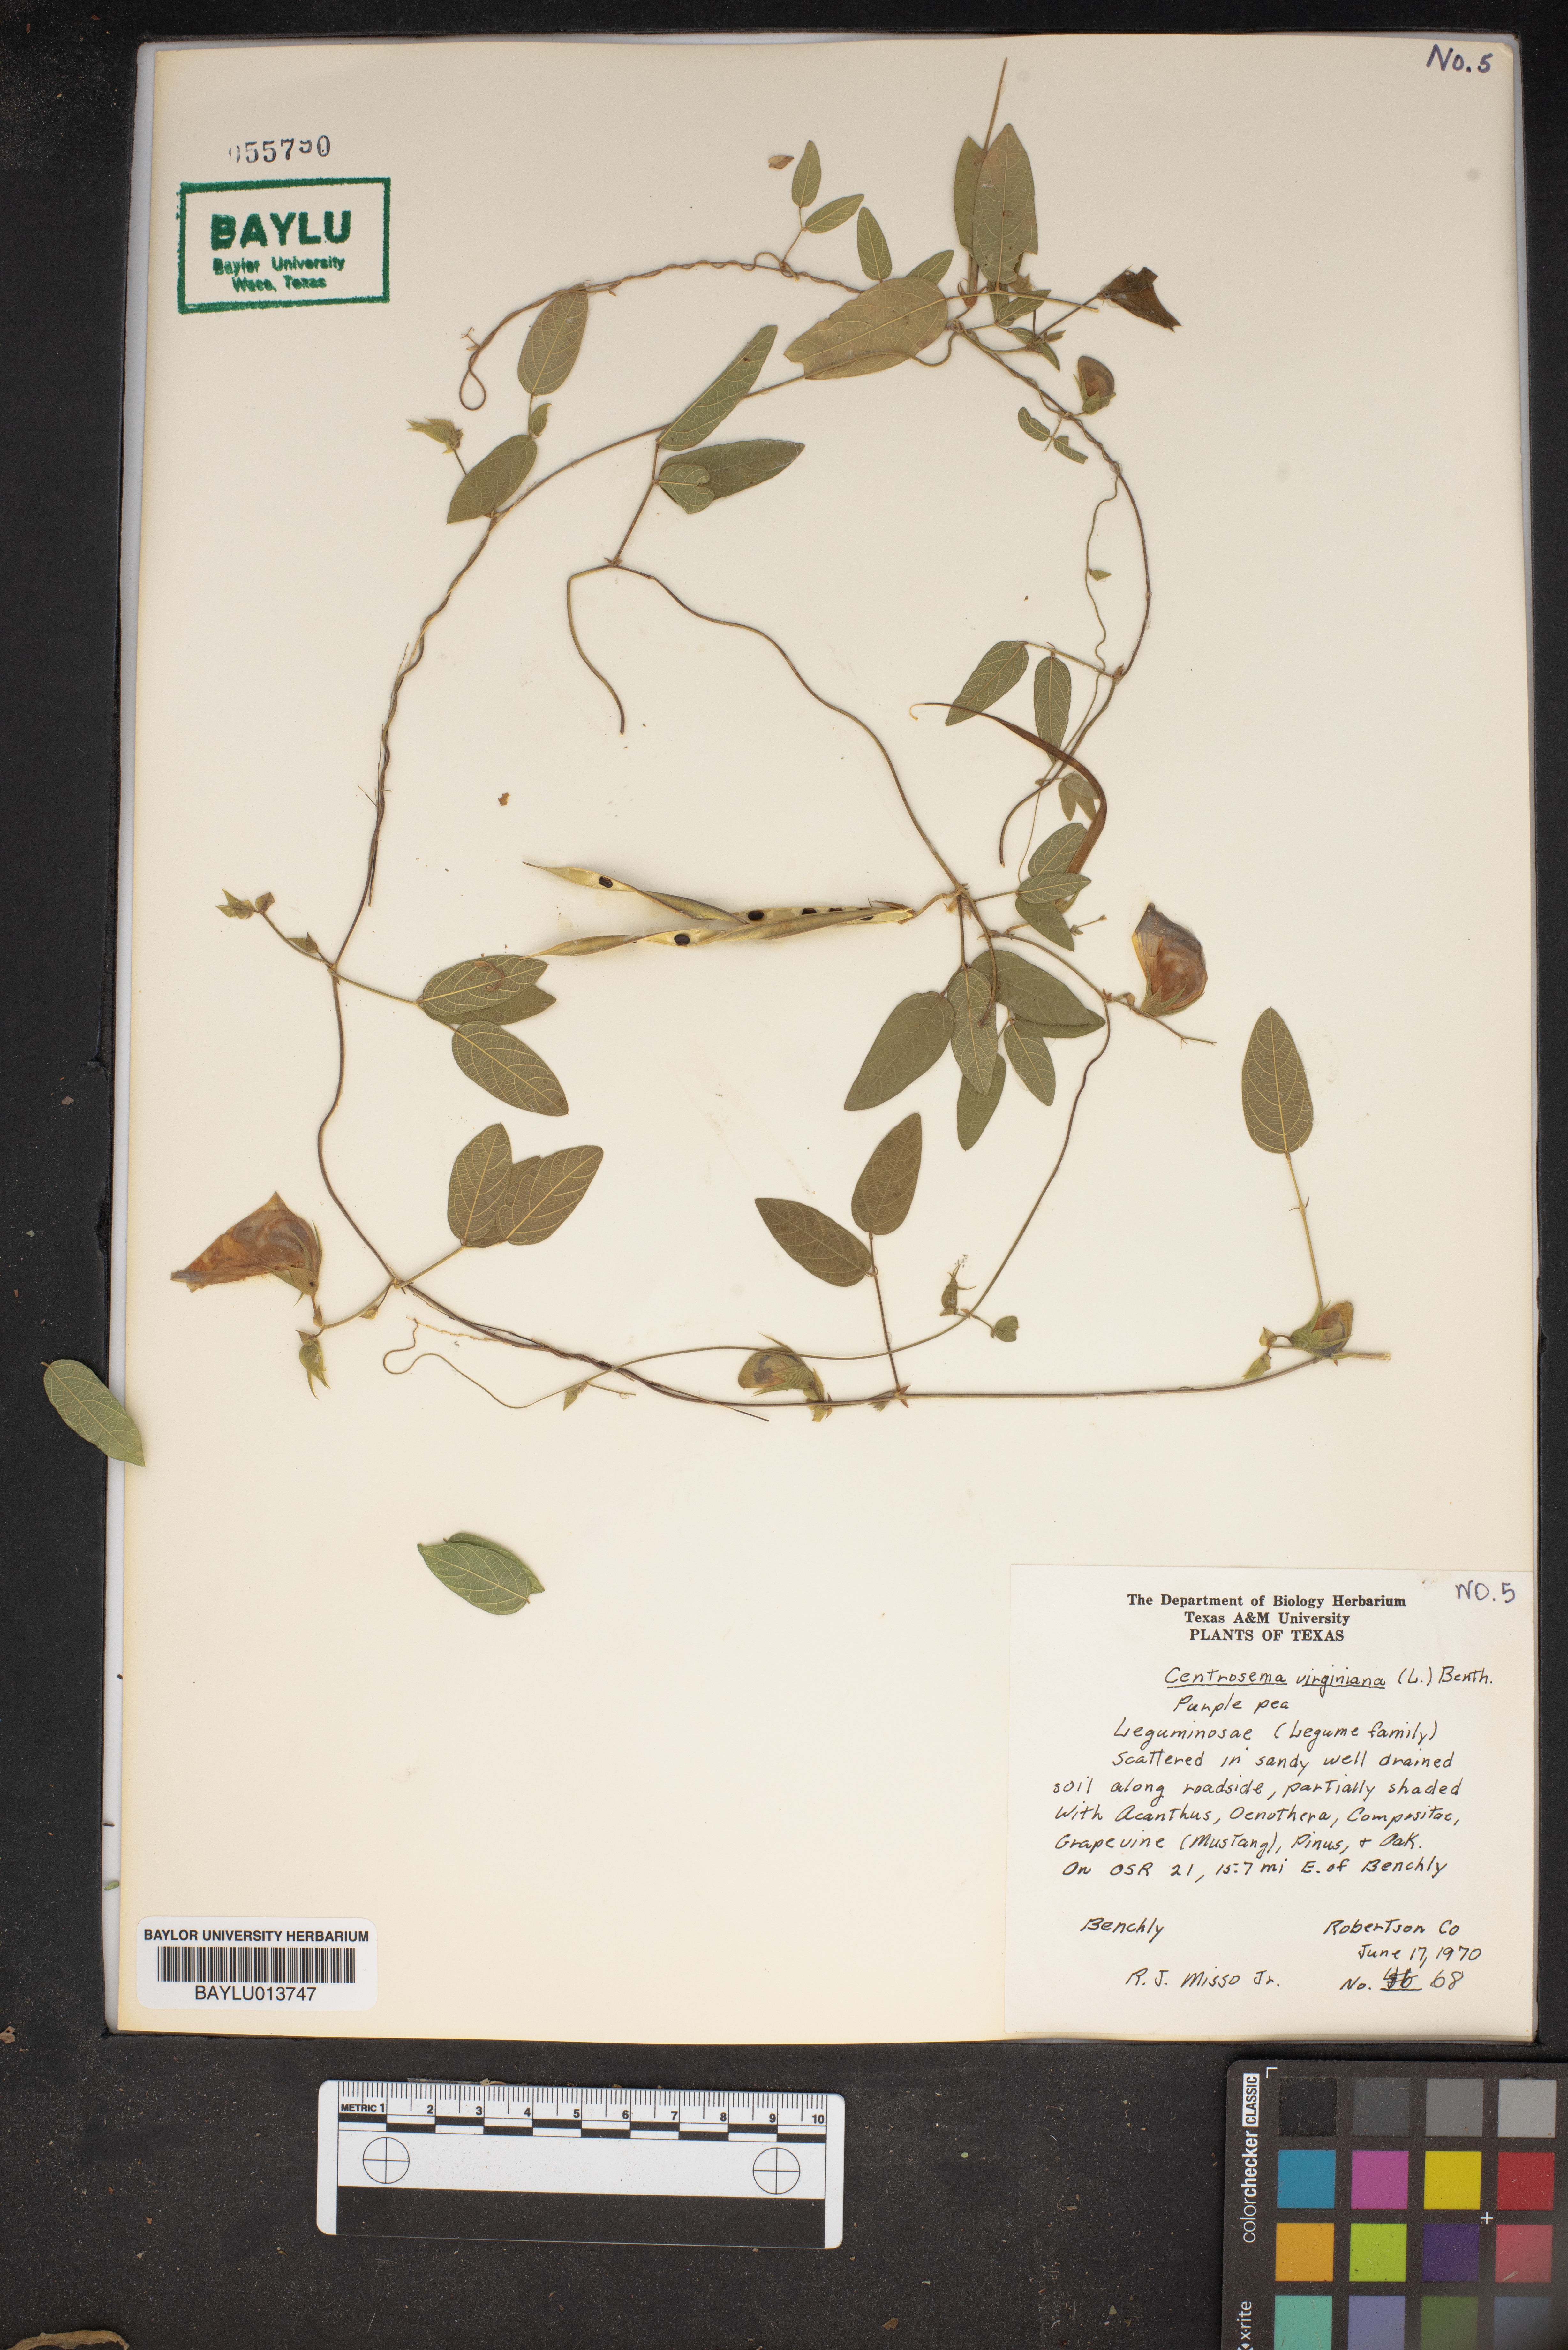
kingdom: Plantae
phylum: Tracheophyta
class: Magnoliopsida
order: Fabales
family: Fabaceae
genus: Centrosema
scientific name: Centrosema virginianum
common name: Butterfly-pea
